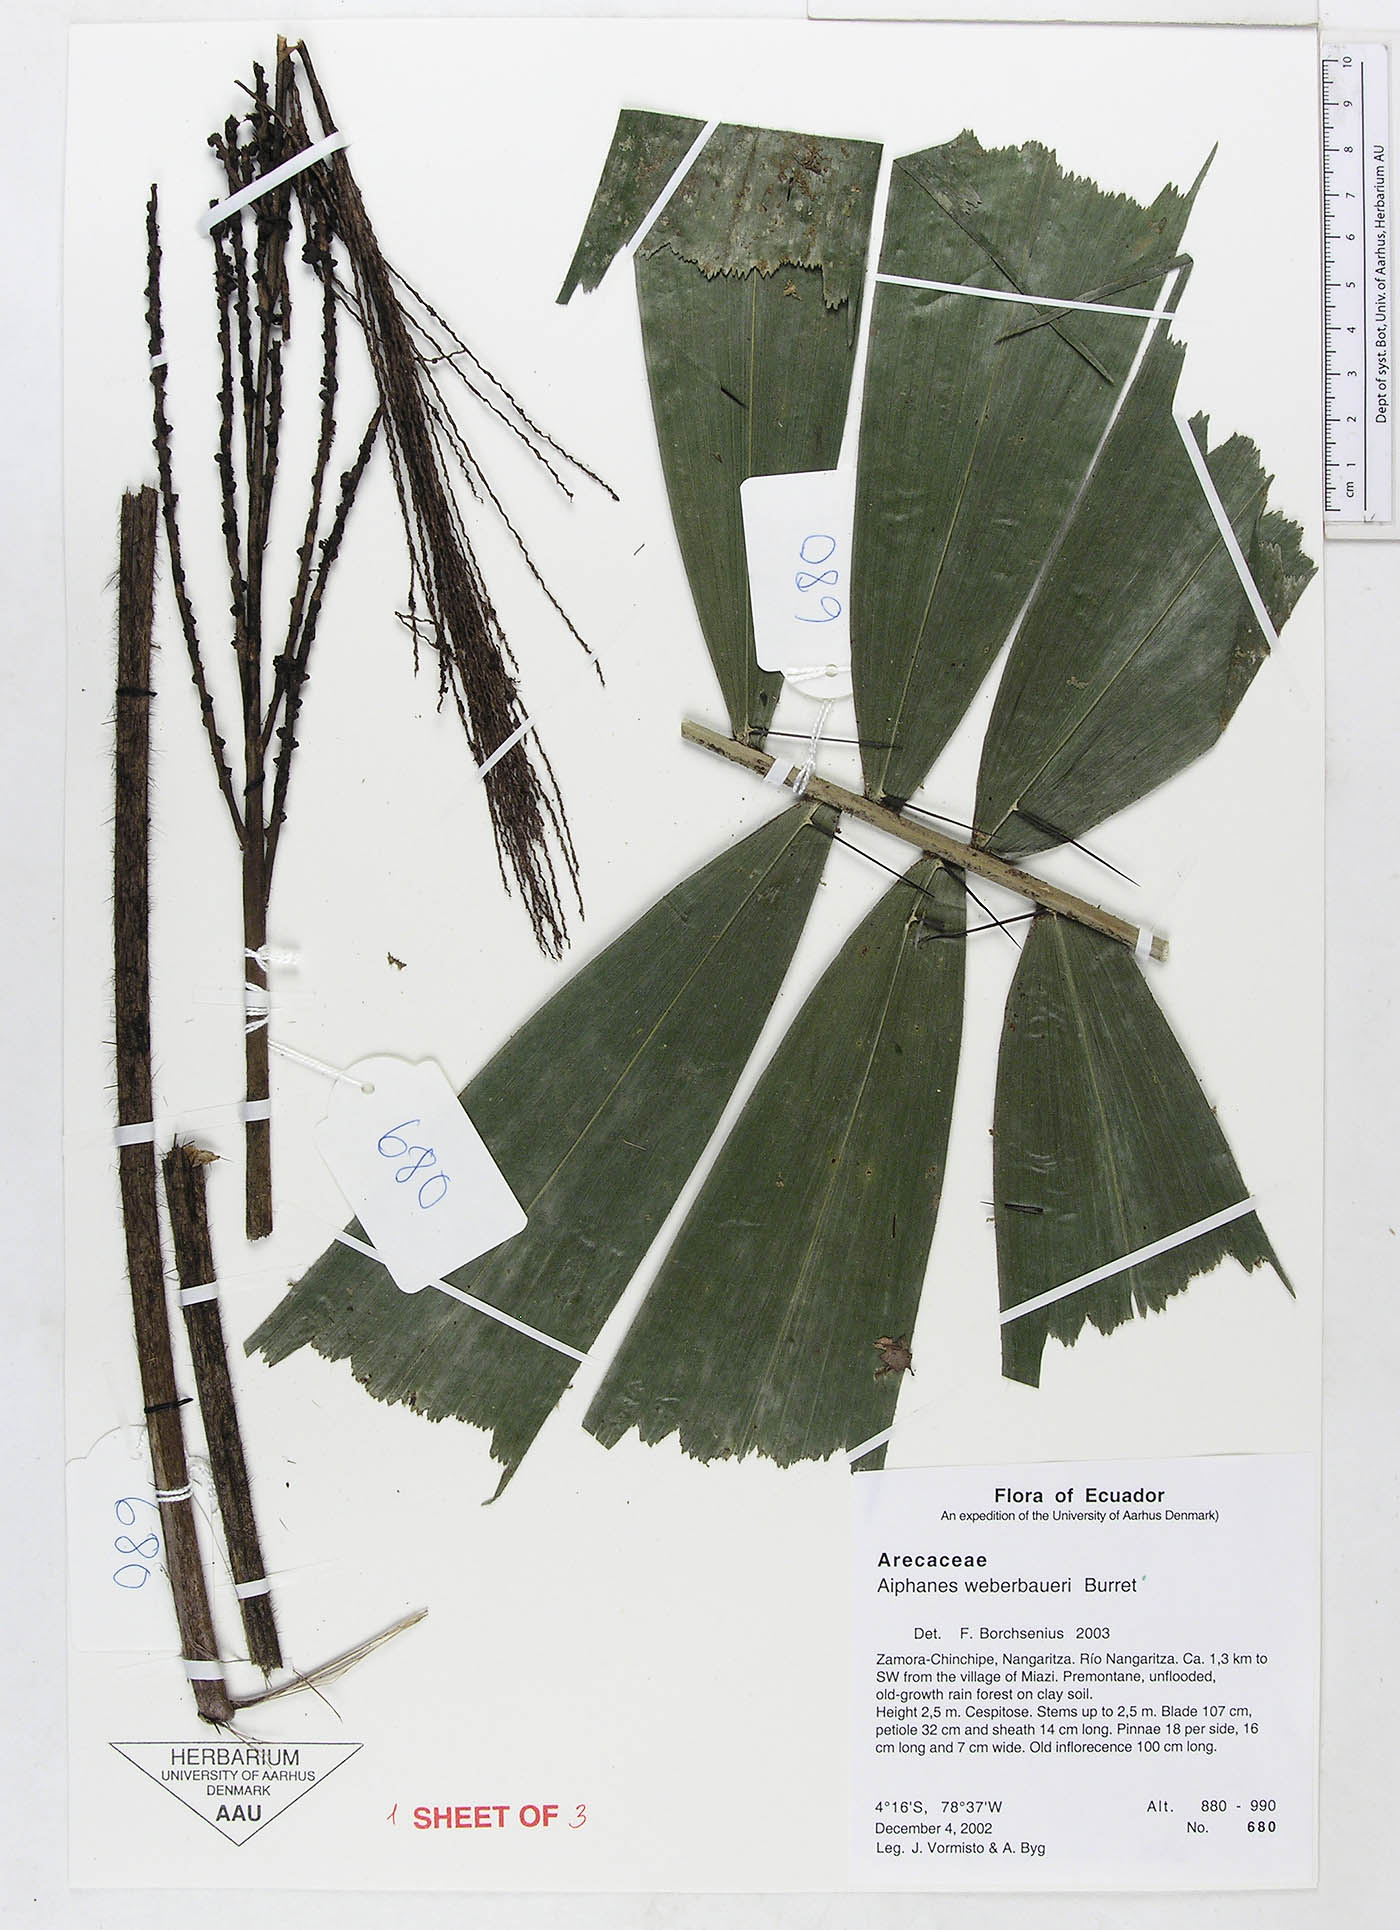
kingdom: Plantae
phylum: Tracheophyta
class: Liliopsida
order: Arecales
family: Arecaceae
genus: Aiphanes
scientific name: Aiphanes weberbaueri
